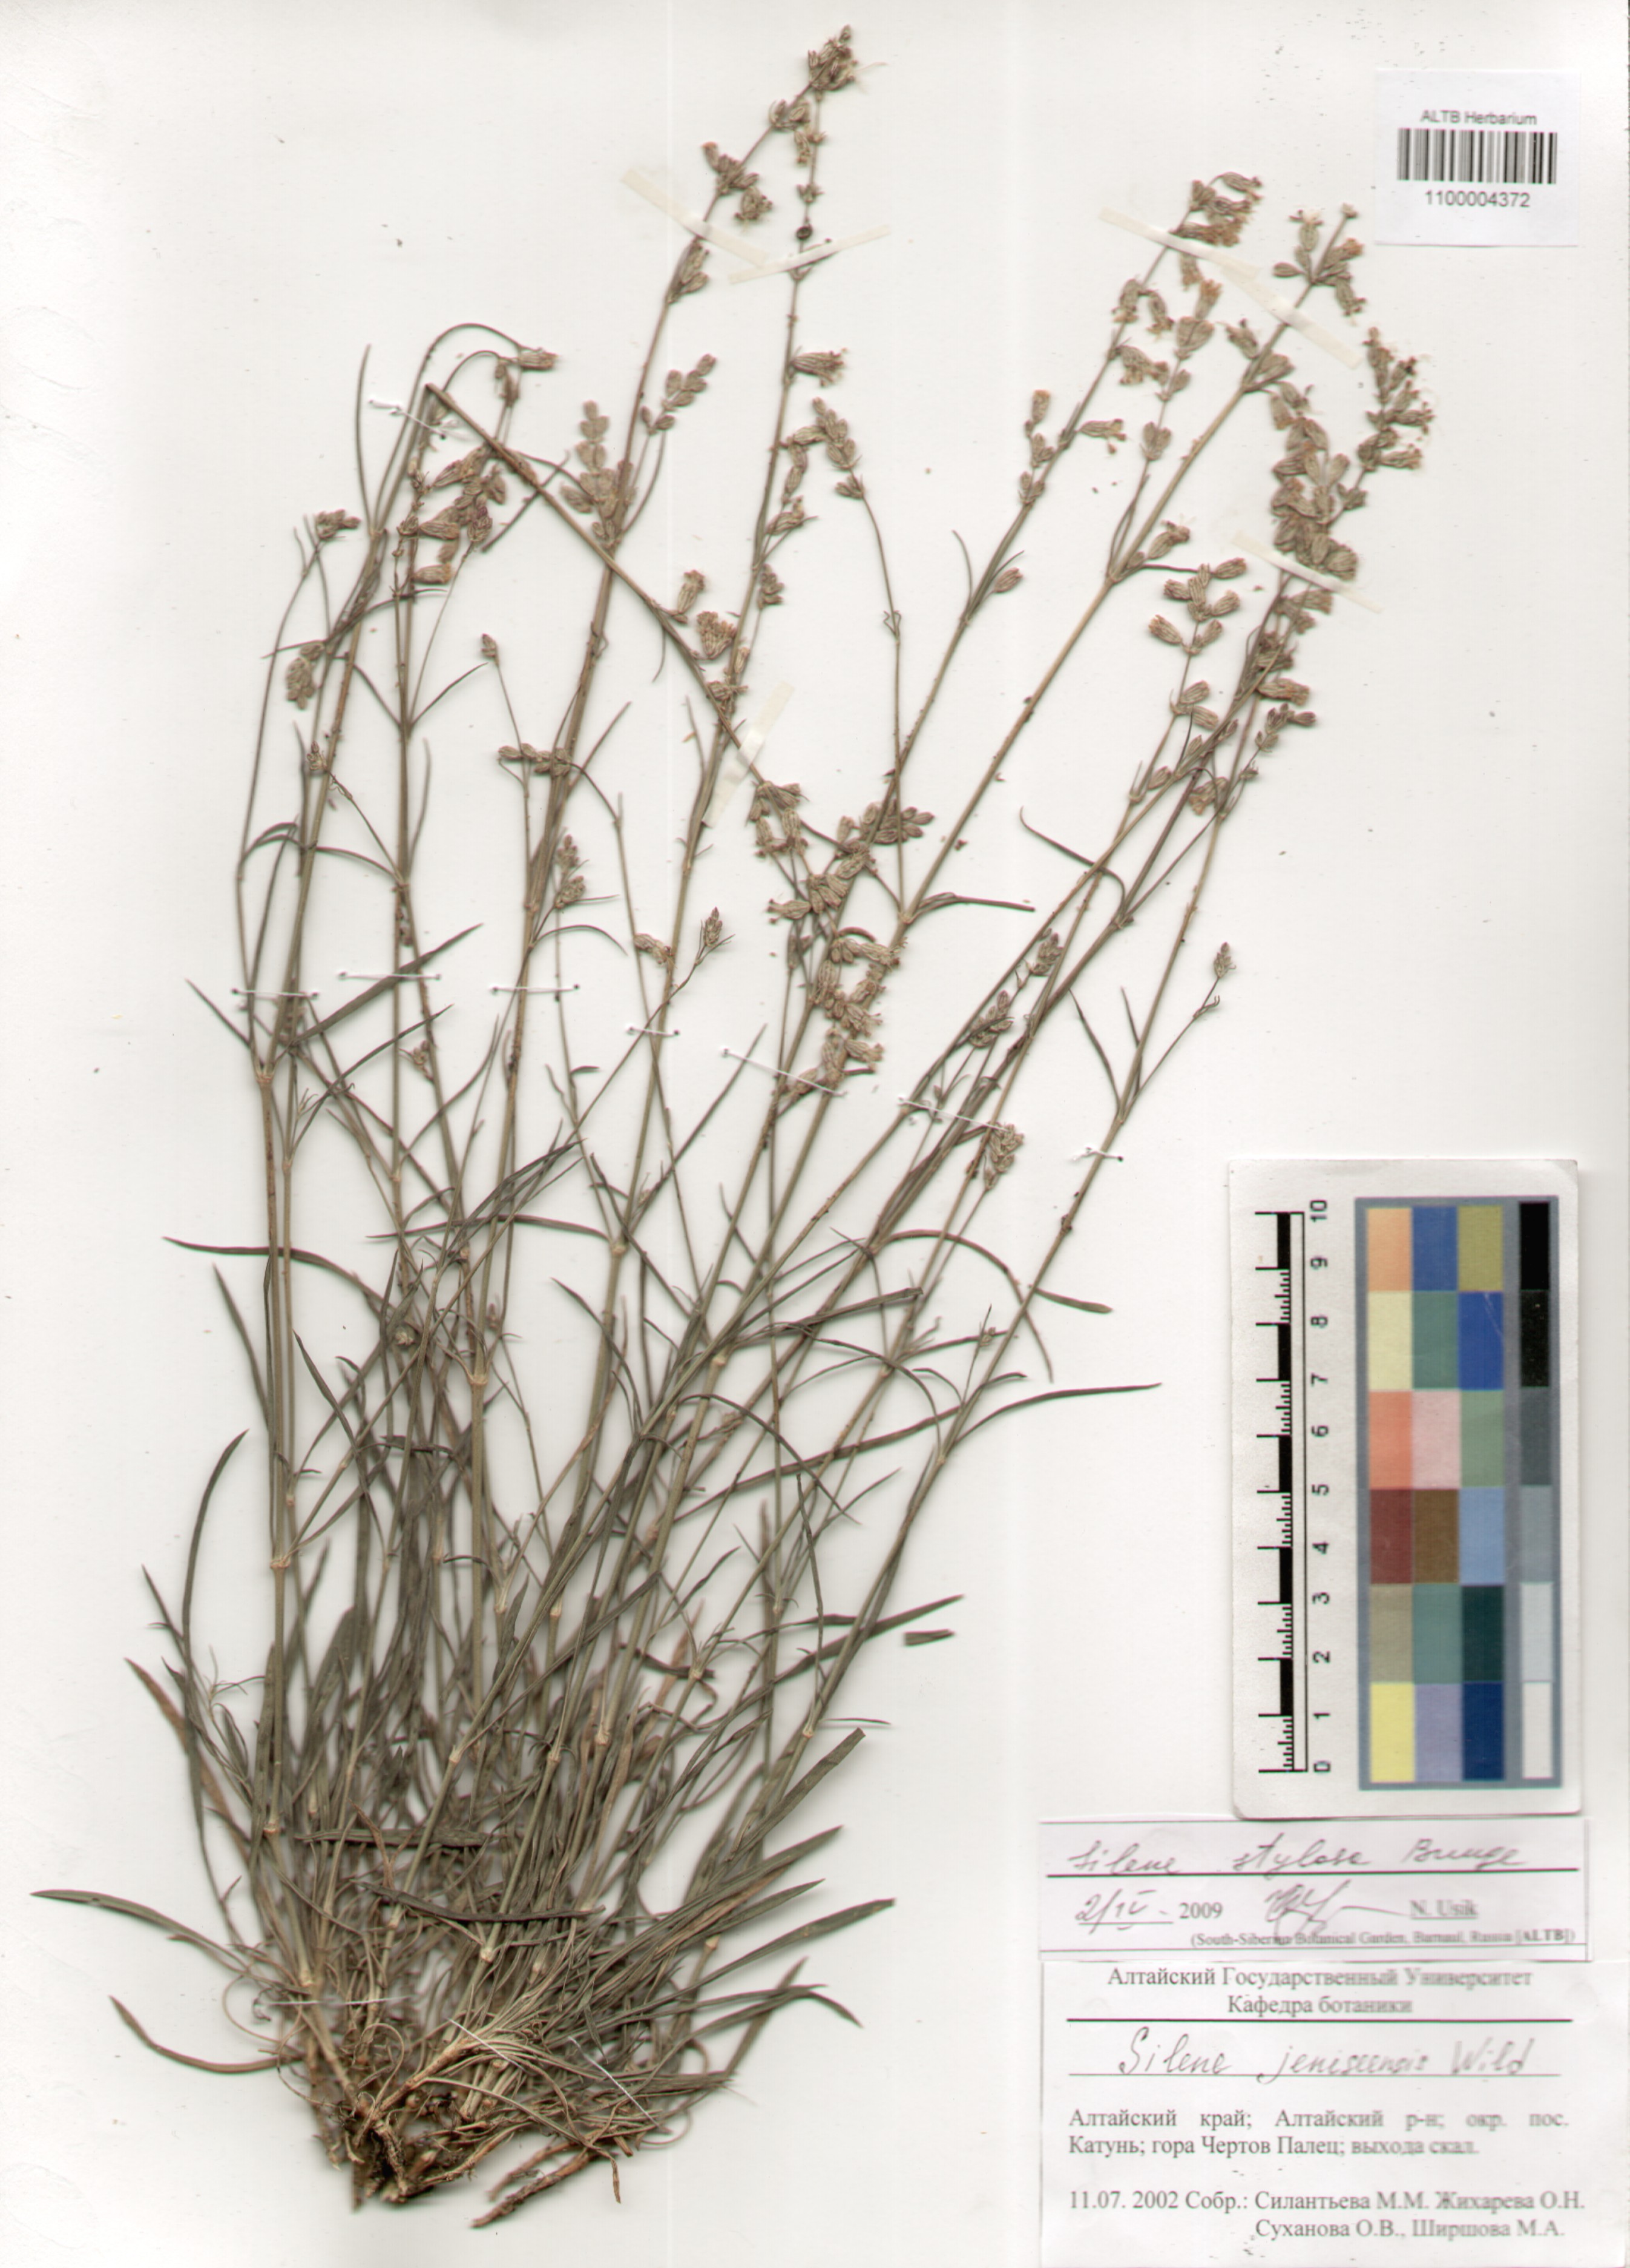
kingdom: Plantae
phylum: Tracheophyta
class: Magnoliopsida
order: Caryophyllales
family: Caryophyllaceae
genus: Silene
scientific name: Silene graminifolia
